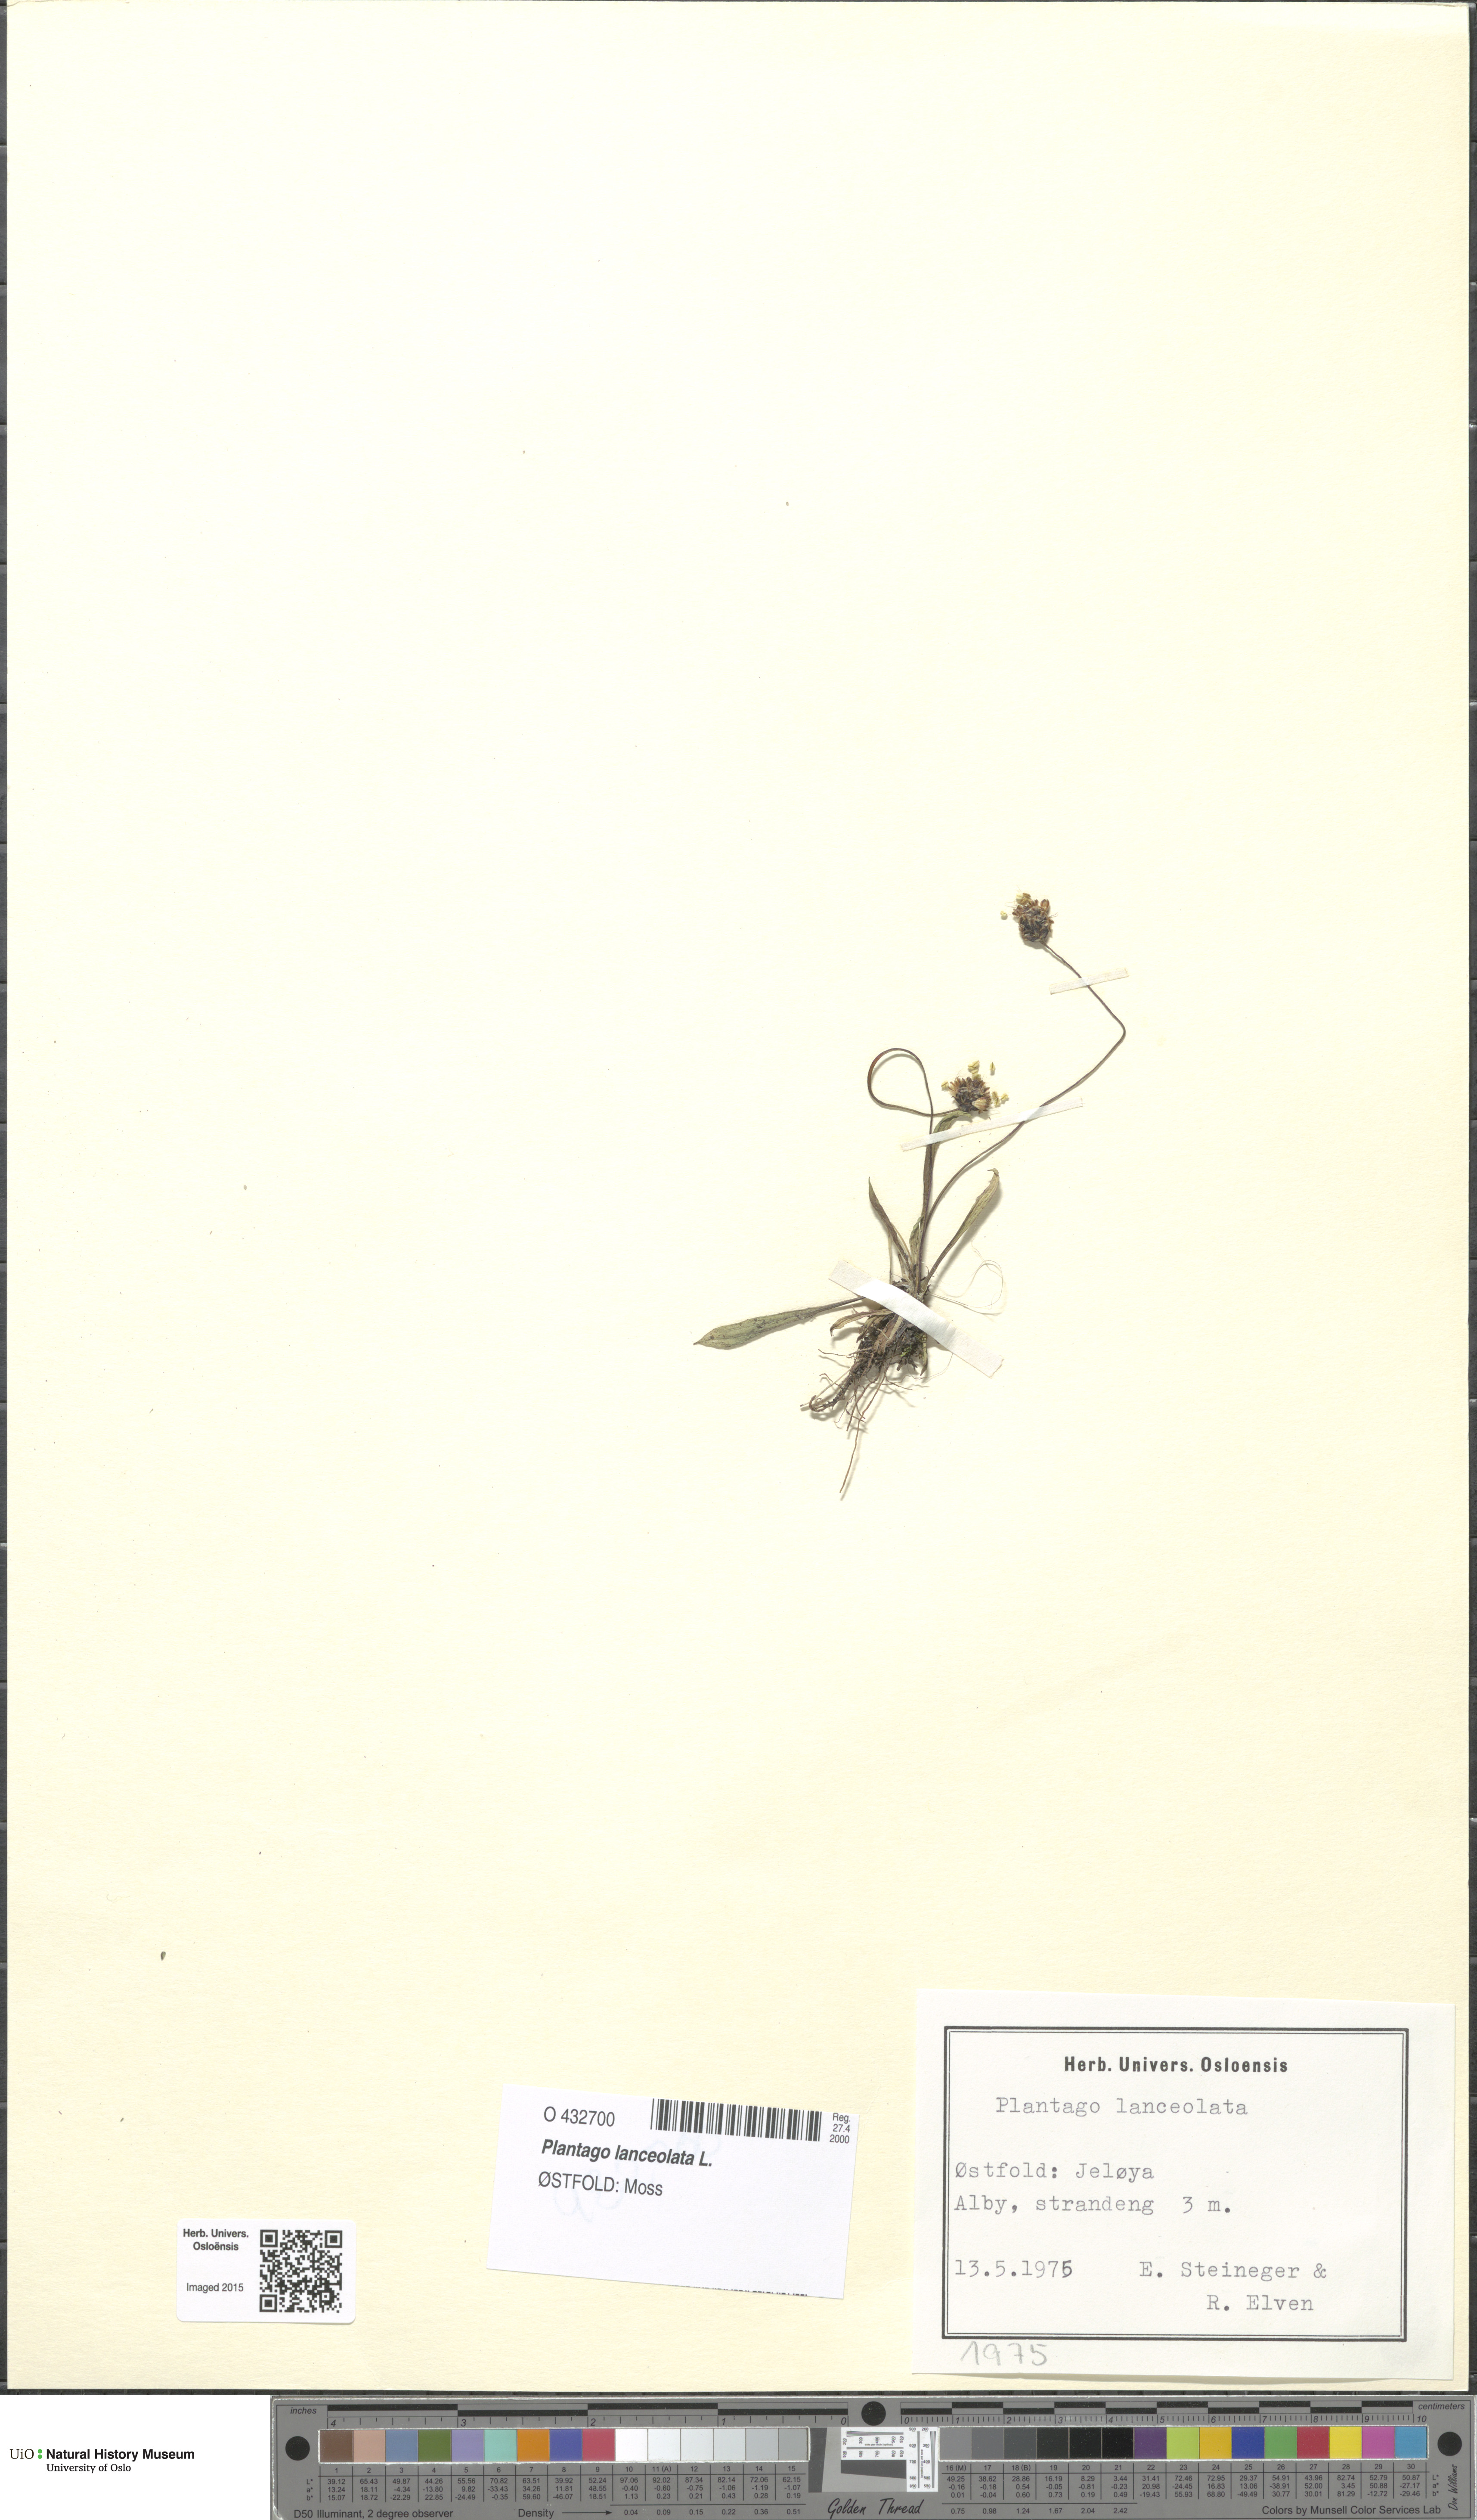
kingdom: Plantae
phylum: Tracheophyta
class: Magnoliopsida
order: Lamiales
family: Plantaginaceae
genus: Plantago
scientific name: Plantago lanceolata
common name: Ribwort plantain
